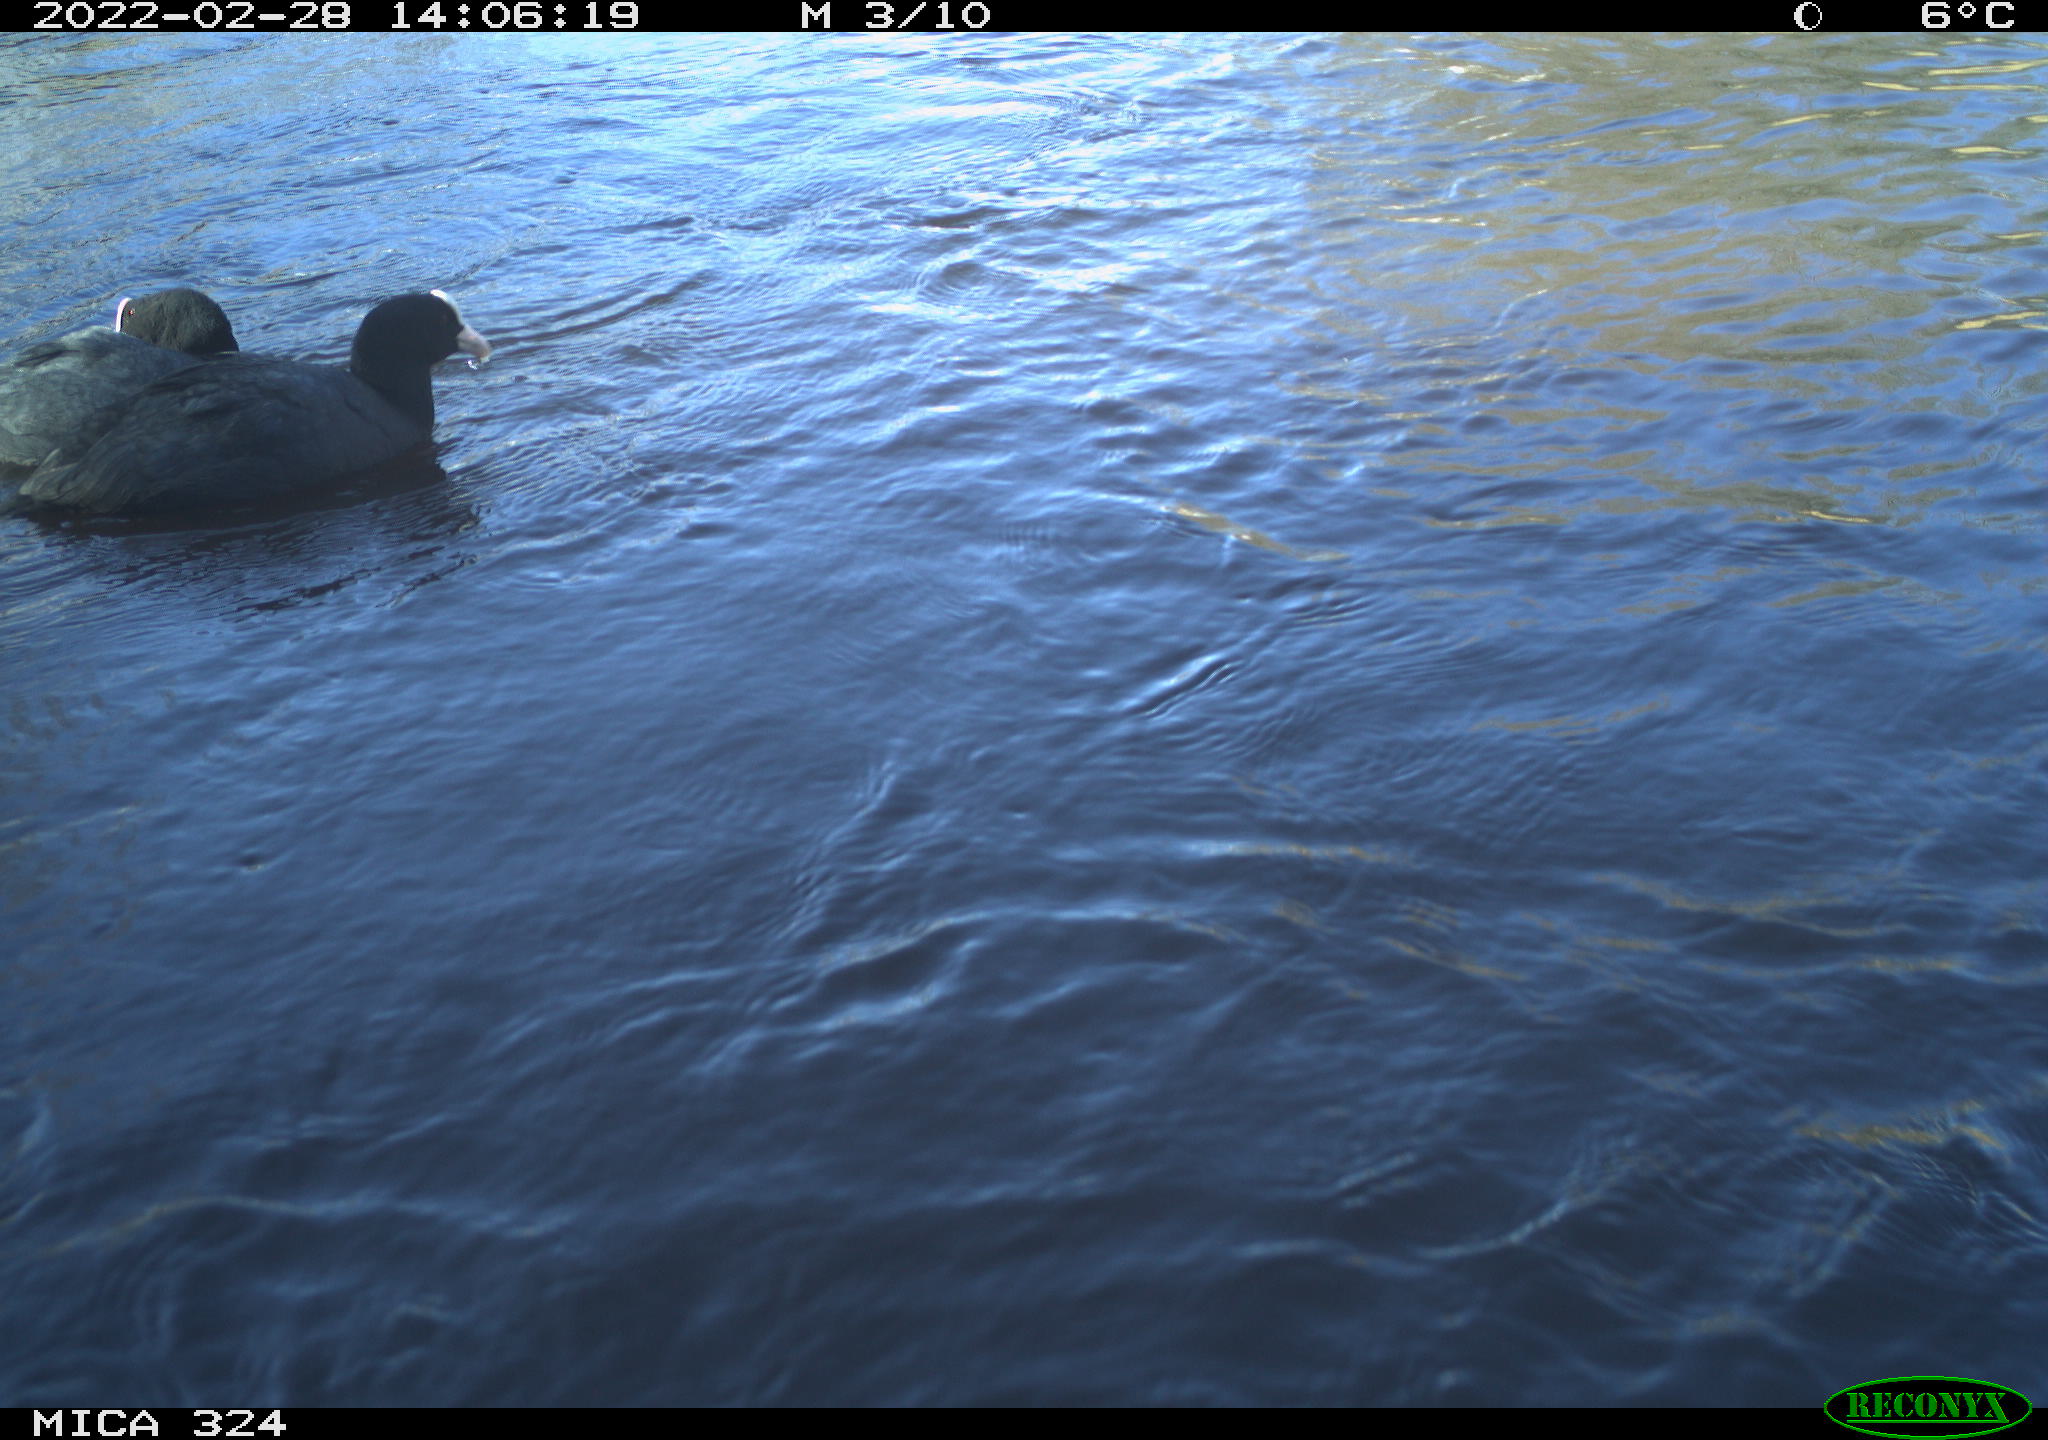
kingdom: Animalia
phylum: Chordata
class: Aves
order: Gruiformes
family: Rallidae
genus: Fulica
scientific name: Fulica atra
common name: Eurasian coot
